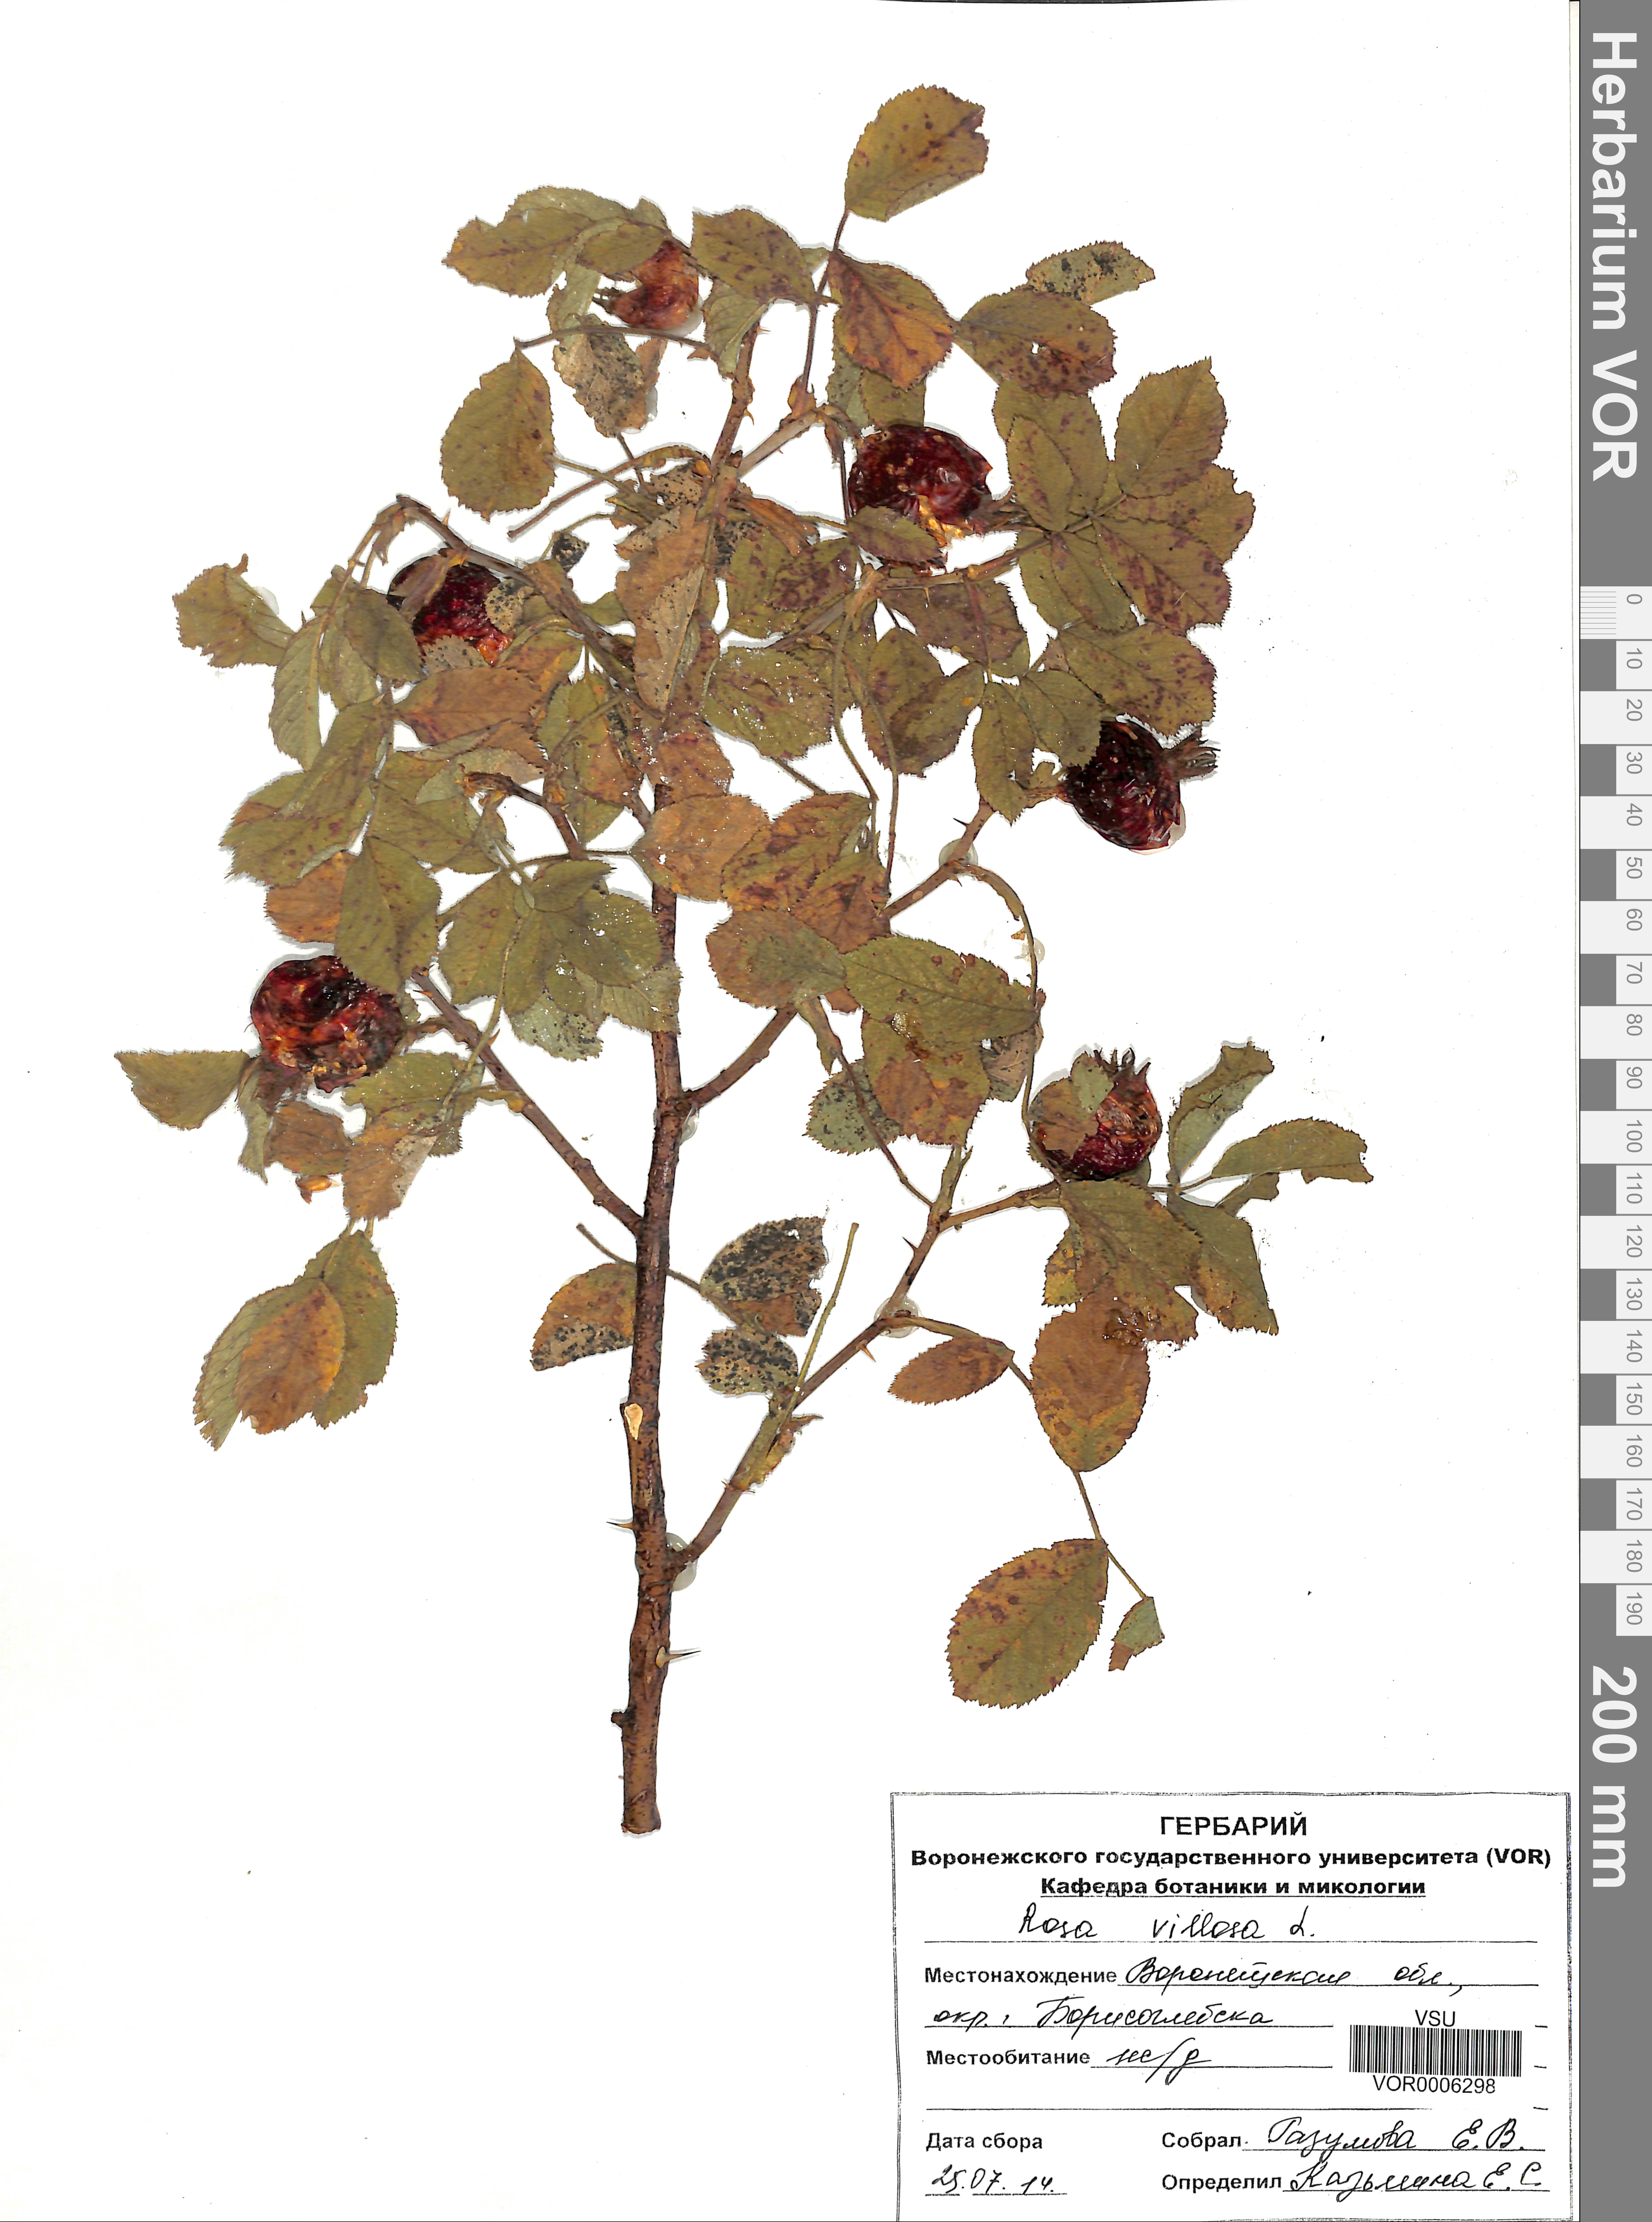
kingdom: Plantae
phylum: Tracheophyta
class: Magnoliopsida
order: Rosales
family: Rosaceae
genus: Rosa
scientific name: Rosa villosa
